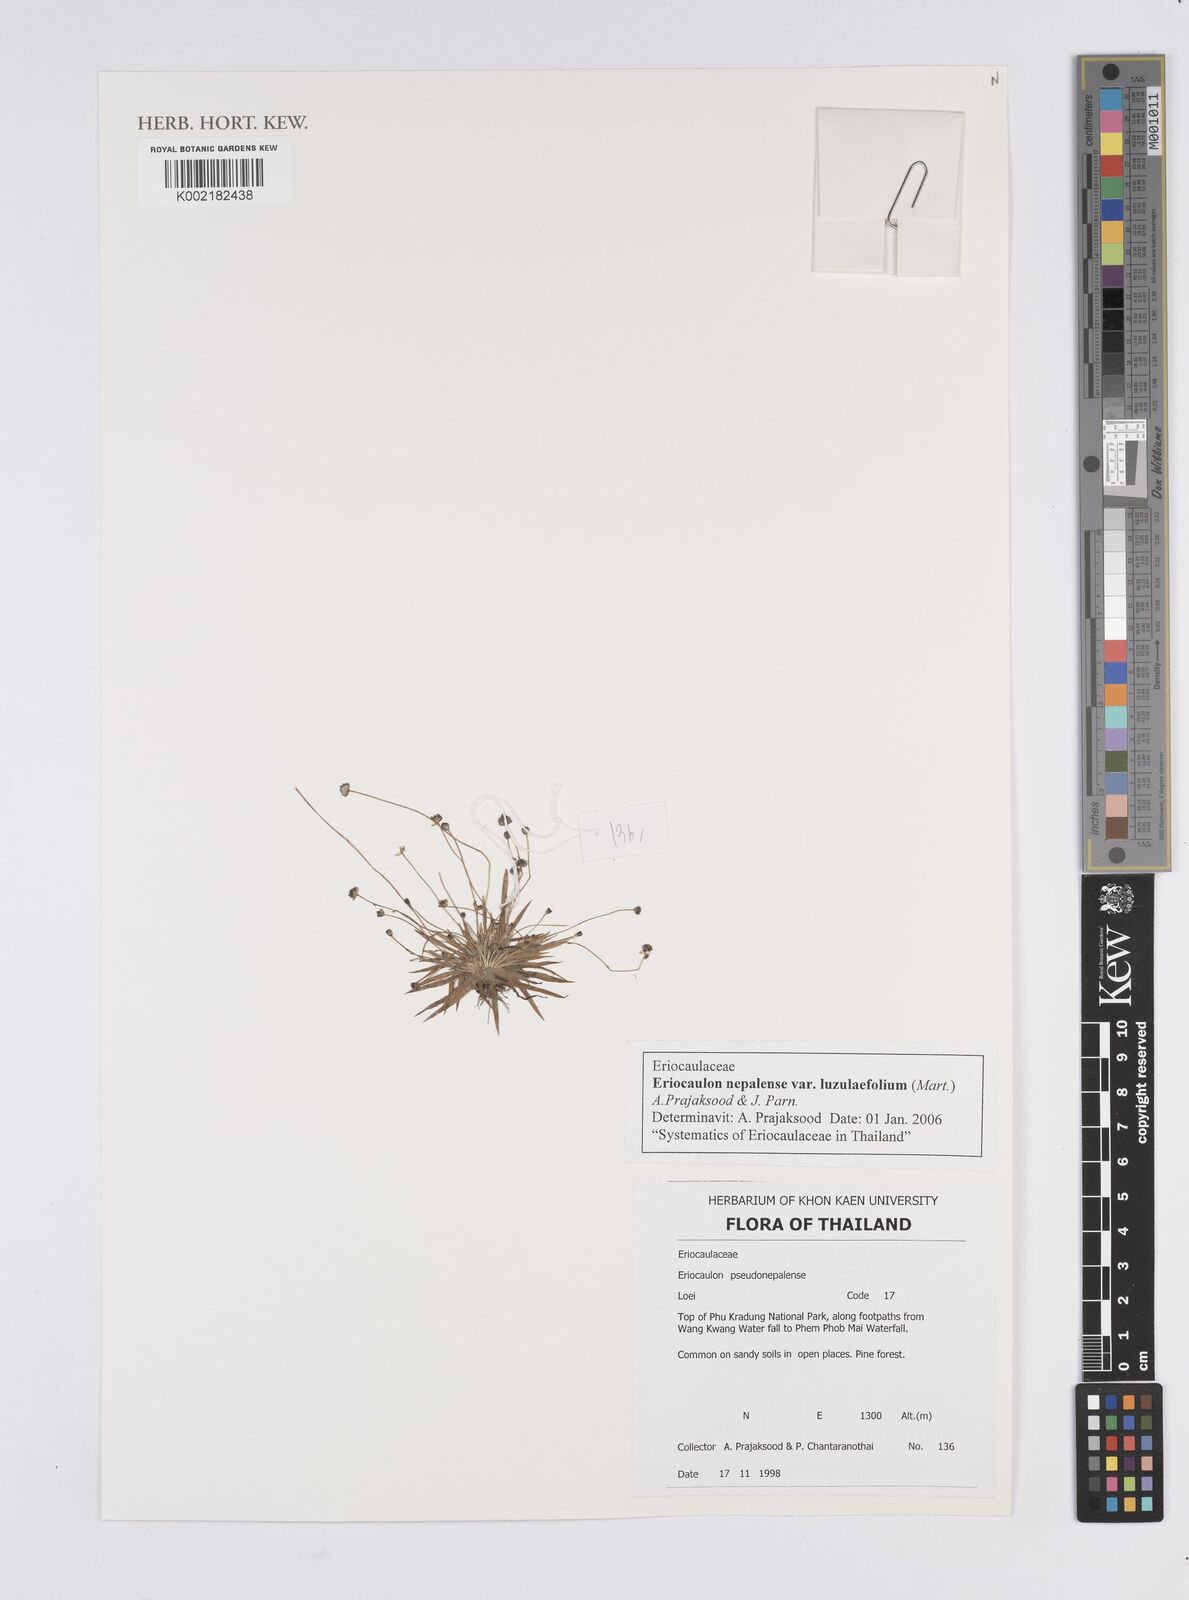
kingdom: Plantae
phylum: Tracheophyta
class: Liliopsida
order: Poales
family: Eriocaulaceae
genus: Eriocaulon
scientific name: Eriocaulon nepalense
